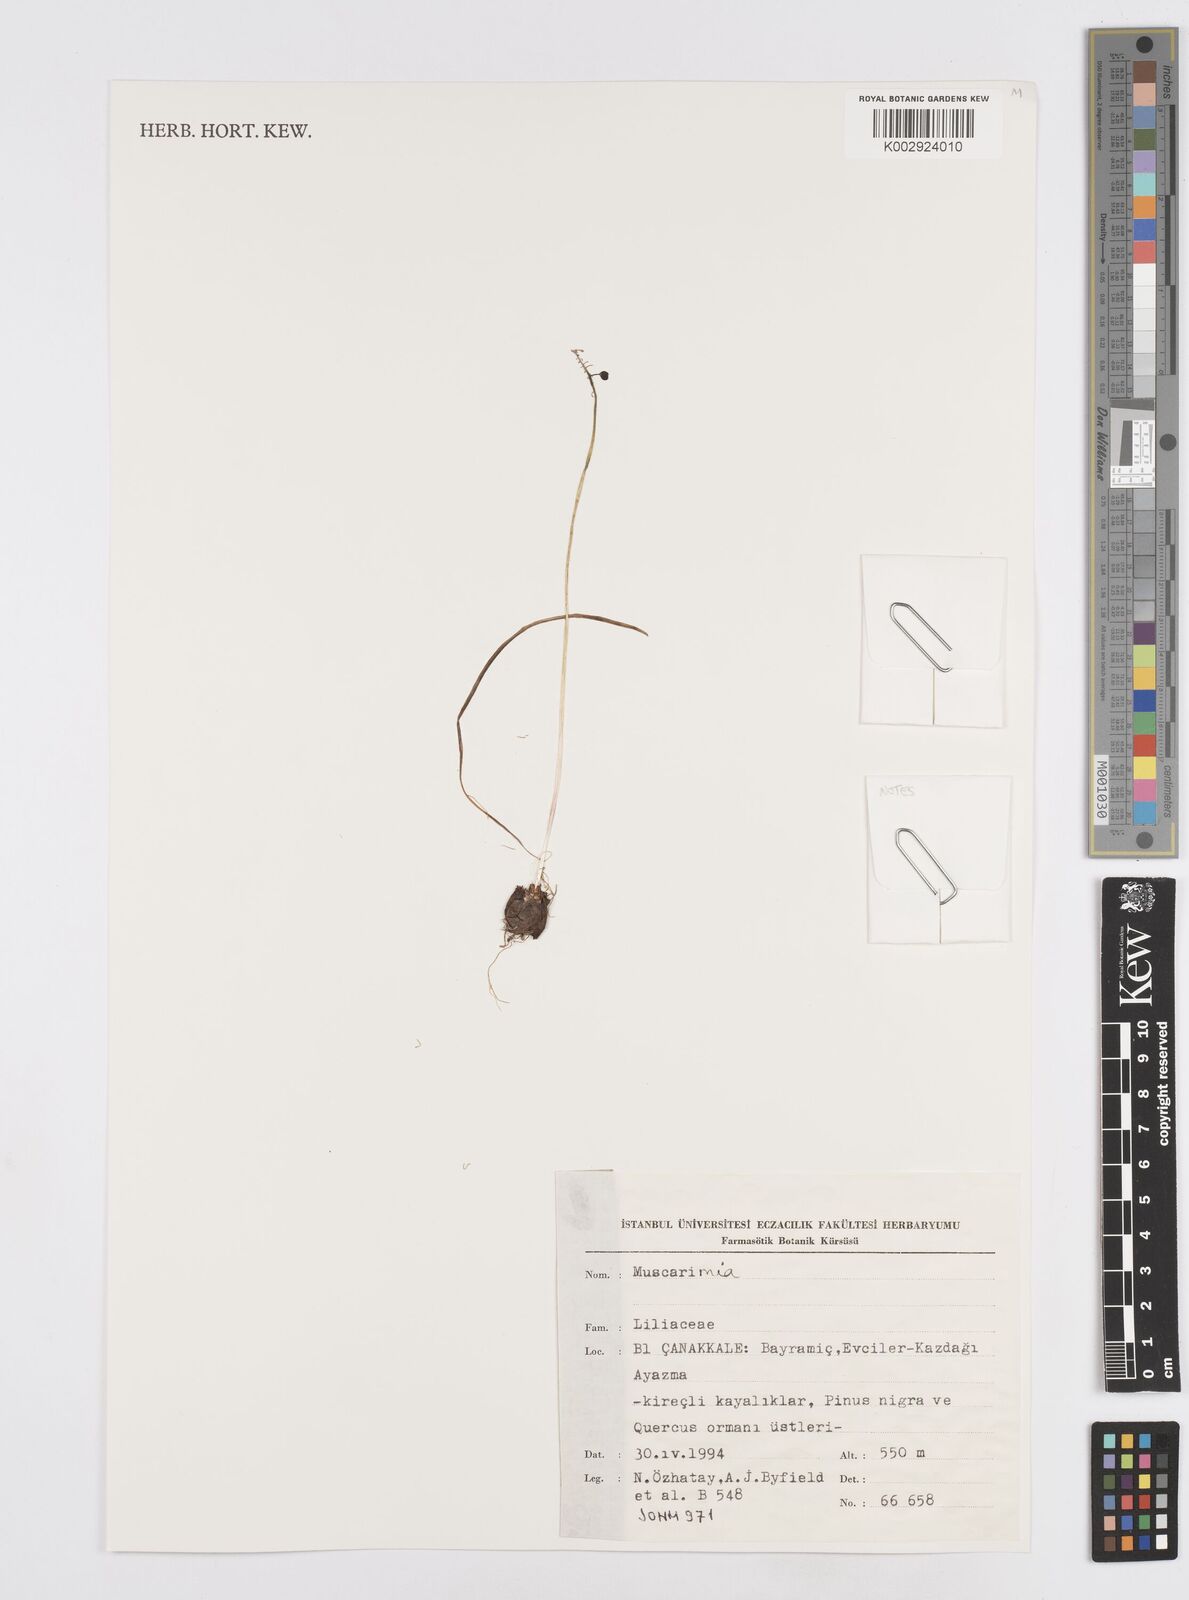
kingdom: Plantae
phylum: Tracheophyta
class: Liliopsida
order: Asparagales
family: Asparagaceae
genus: Muscari
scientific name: Muscari
